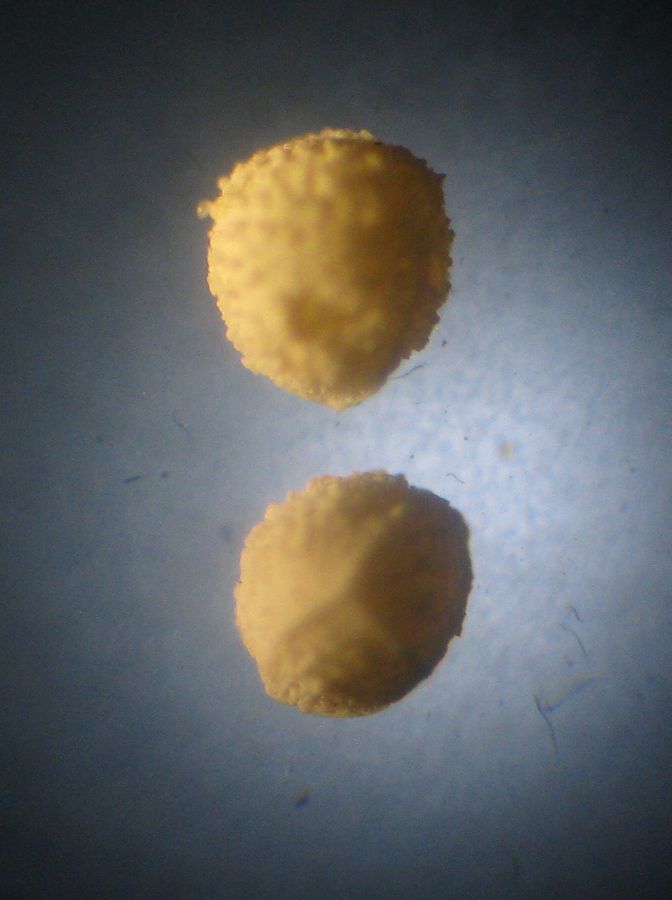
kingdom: Plantae
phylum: Tracheophyta
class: Lycopodiopsida
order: Isoetales
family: Isoetaceae
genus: Isoetes
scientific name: Isoetes lacustris
